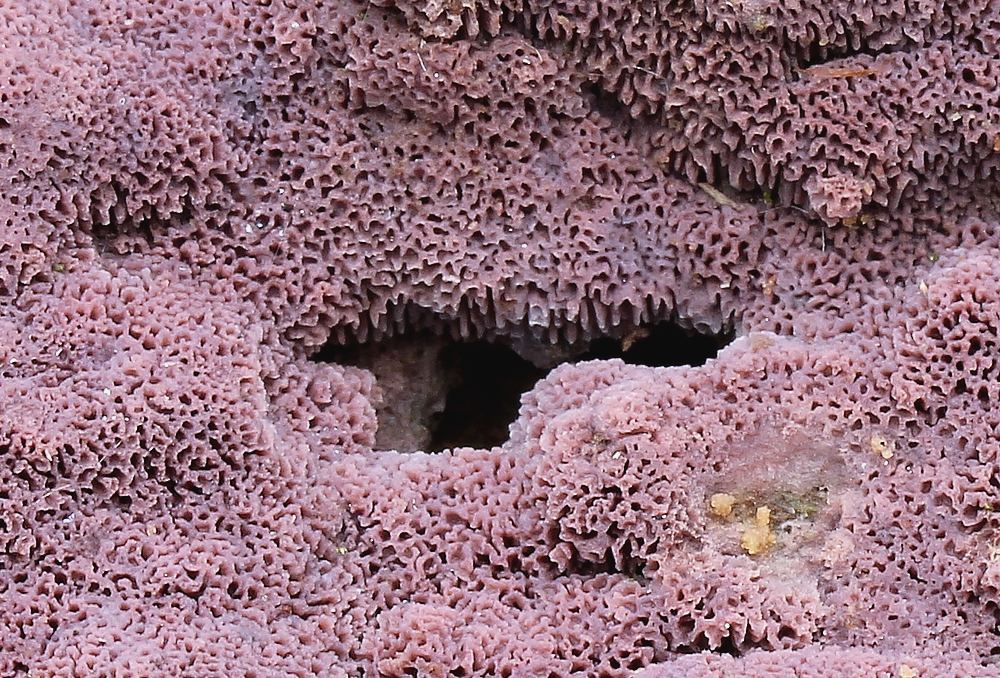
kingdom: Fungi
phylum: Basidiomycota
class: Agaricomycetes
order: Polyporales
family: Irpicaceae
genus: Ceriporia
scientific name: Ceriporia excelsa
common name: lilla voksporesvamp
